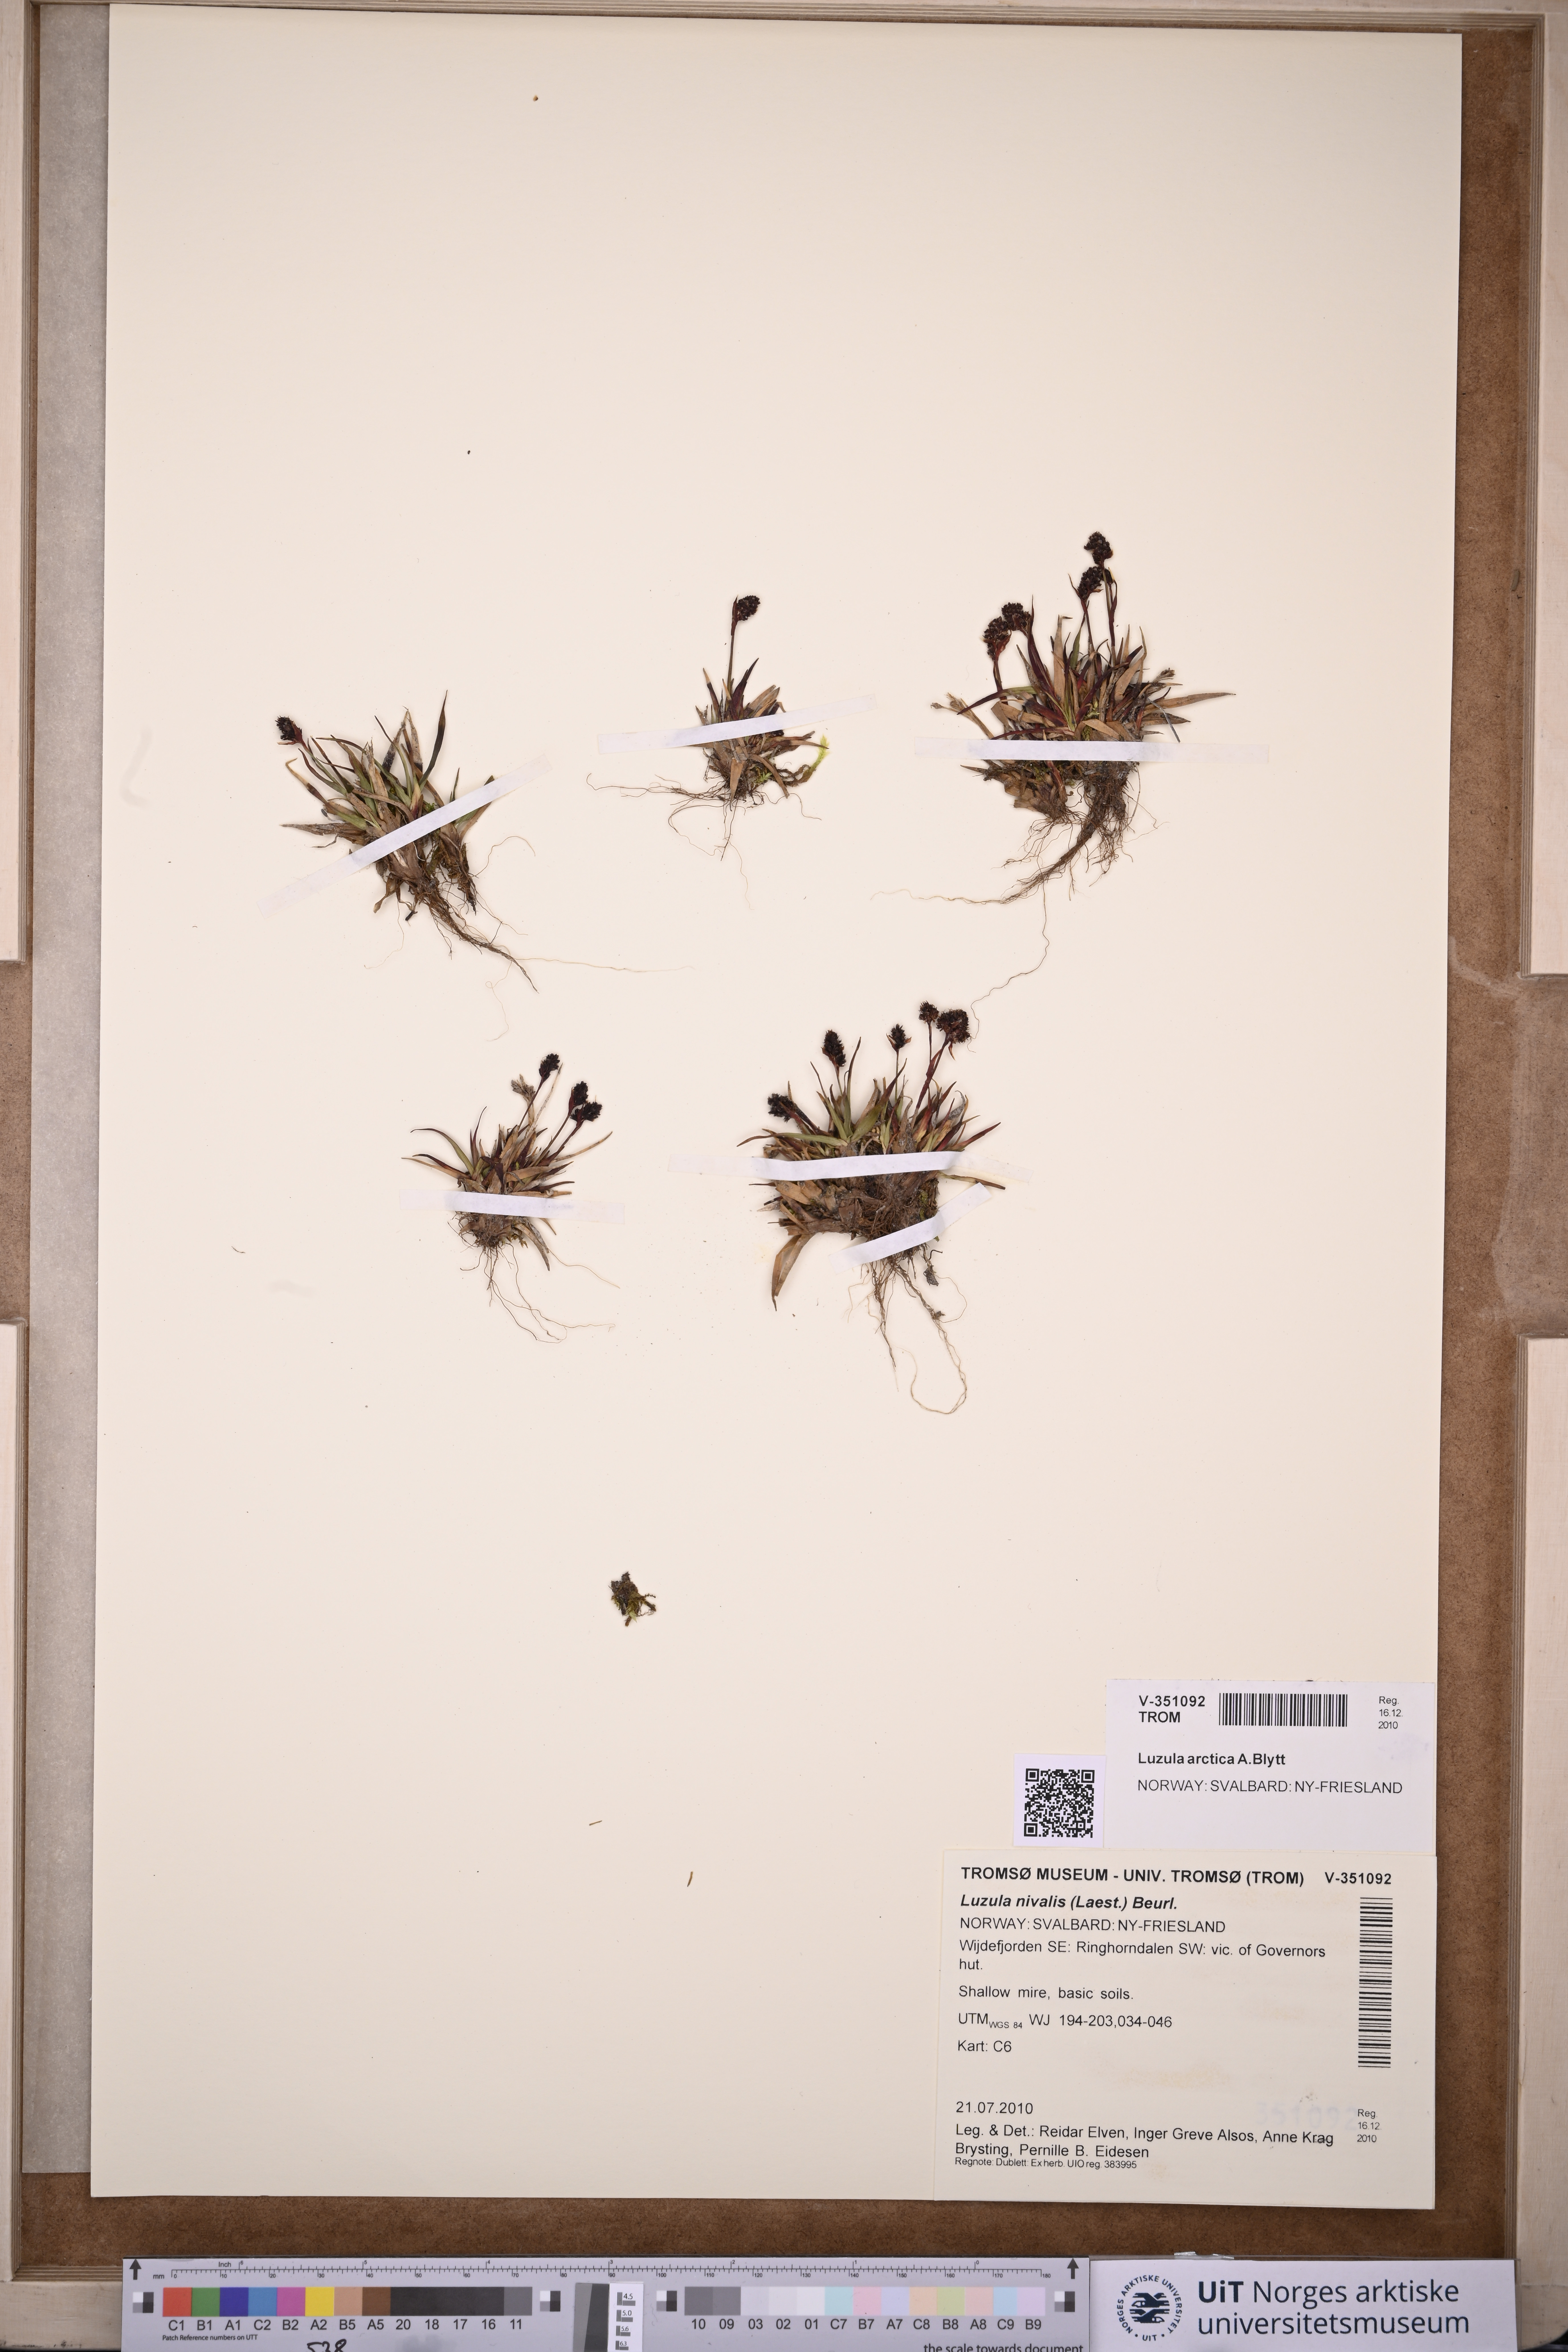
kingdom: Plantae
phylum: Tracheophyta
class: Liliopsida
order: Poales
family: Juncaceae
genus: Luzula
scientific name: Luzula nivalis
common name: Arctic woodrush
